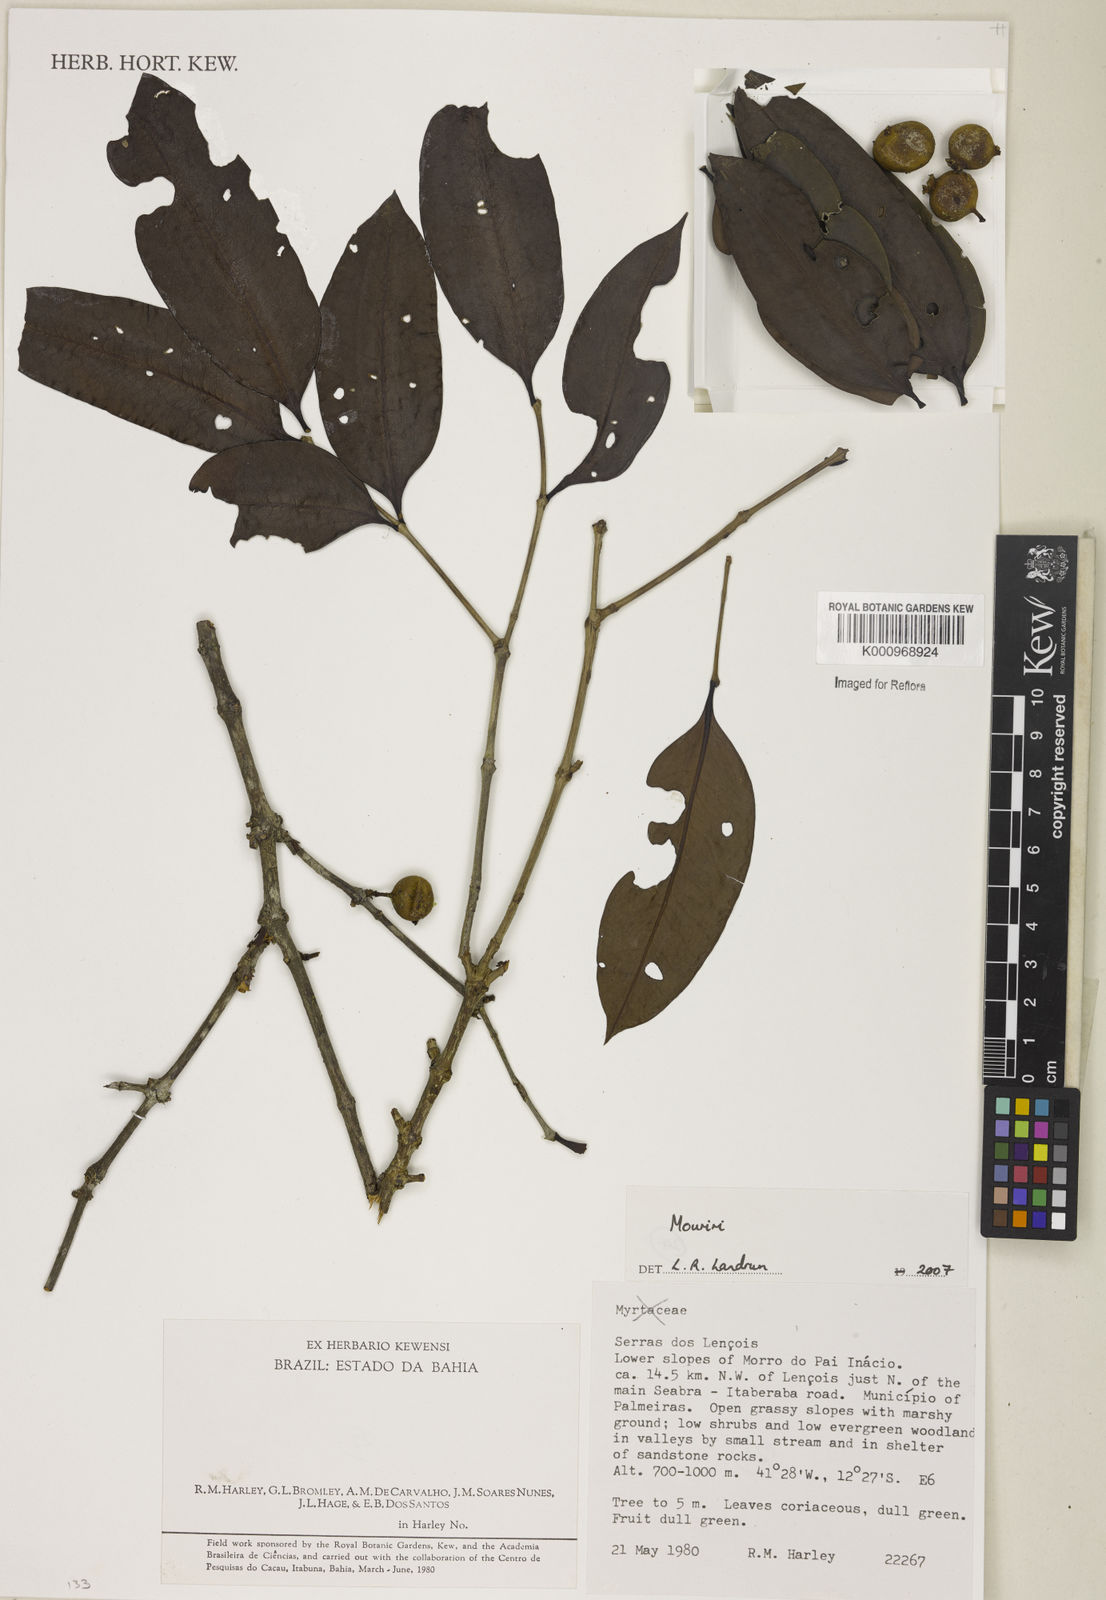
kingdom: Plantae
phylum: Tracheophyta
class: Magnoliopsida
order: Myrtales
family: Melastomataceae
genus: Mouriri
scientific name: Mouriri
